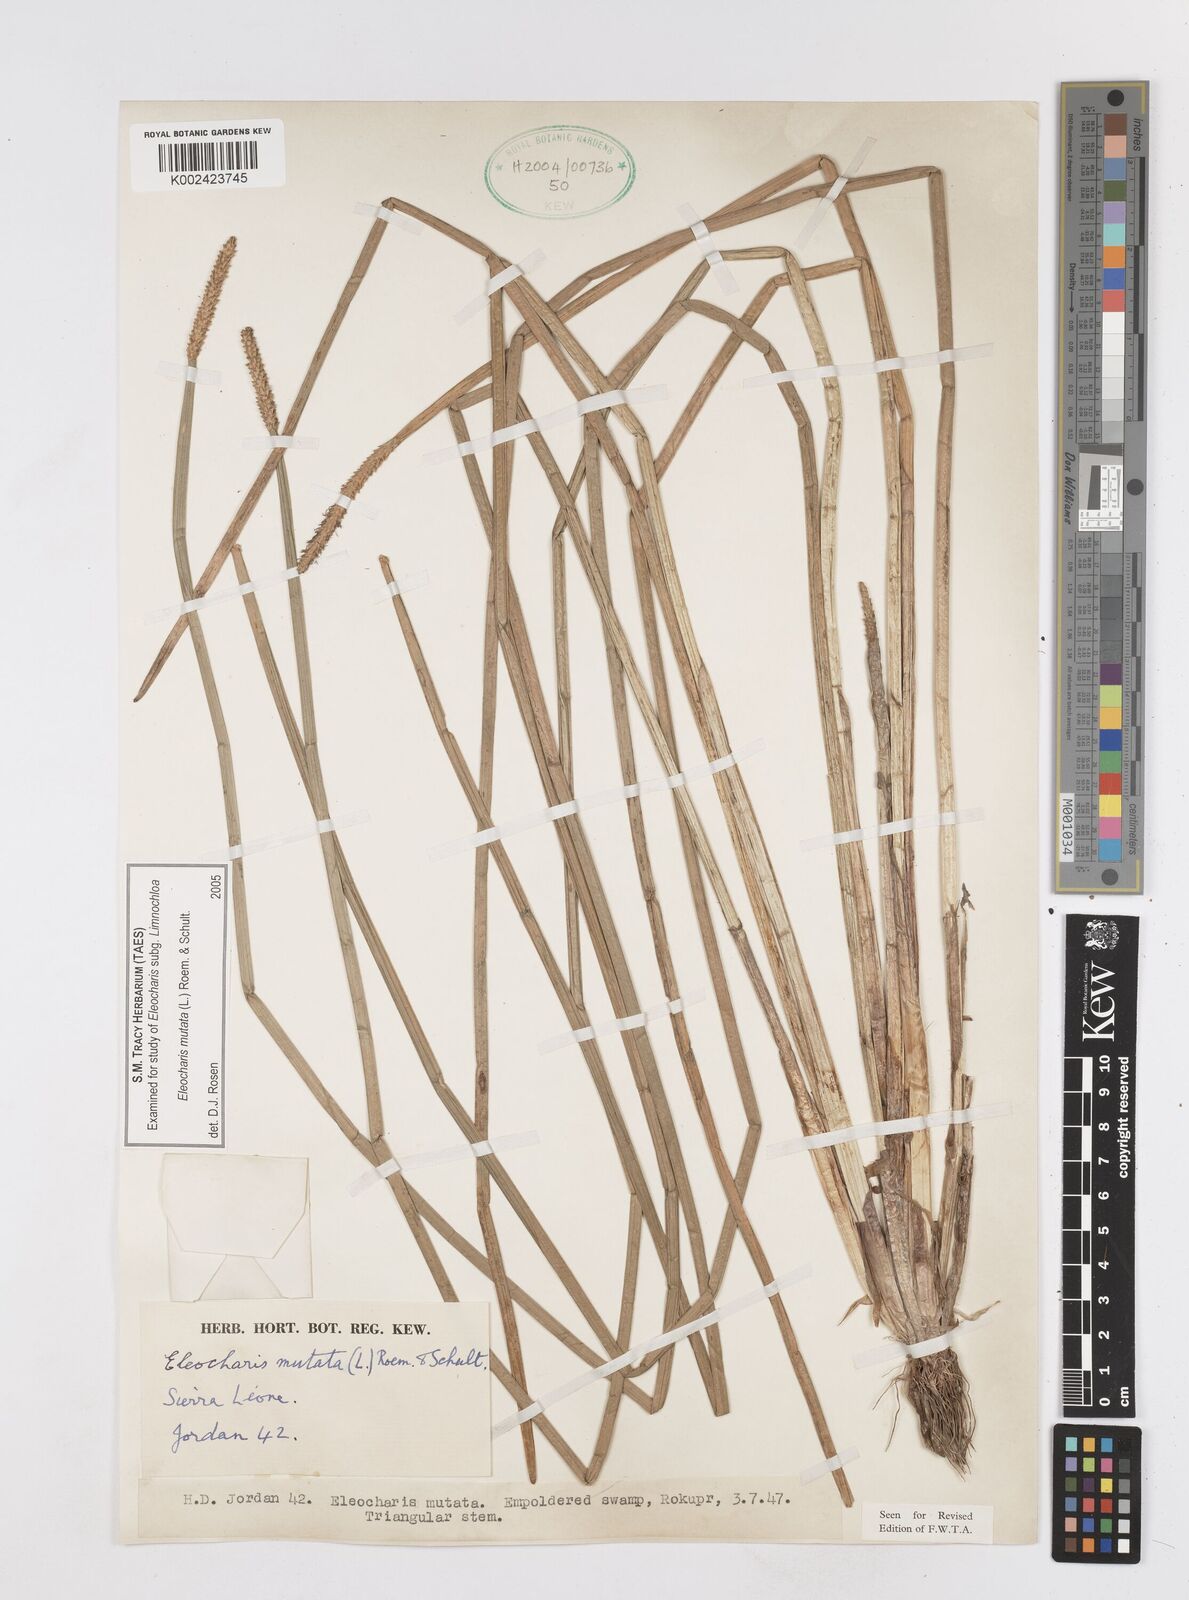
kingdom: Plantae
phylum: Tracheophyta
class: Liliopsida
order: Poales
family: Cyperaceae
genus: Eleocharis
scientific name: Eleocharis mutata
